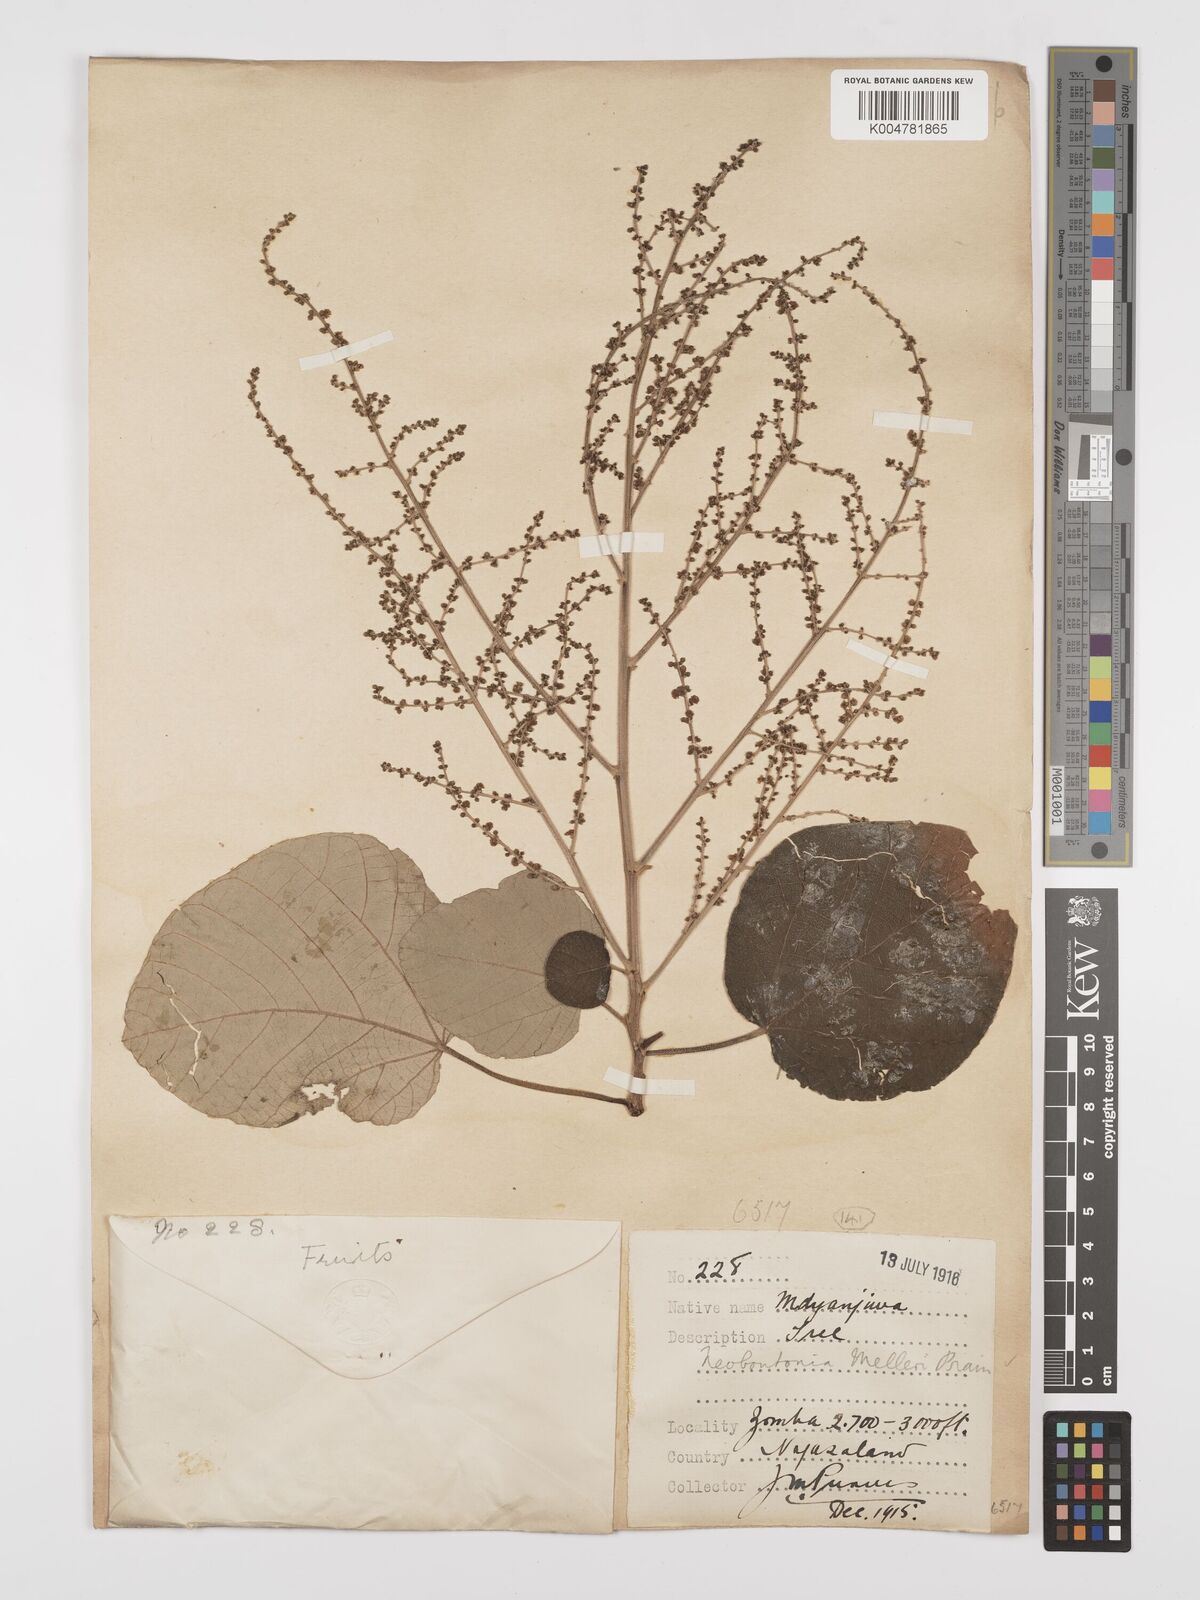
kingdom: Plantae
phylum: Tracheophyta
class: Magnoliopsida
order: Malpighiales
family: Euphorbiaceae
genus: Neoboutonia
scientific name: Neoboutonia melleri
